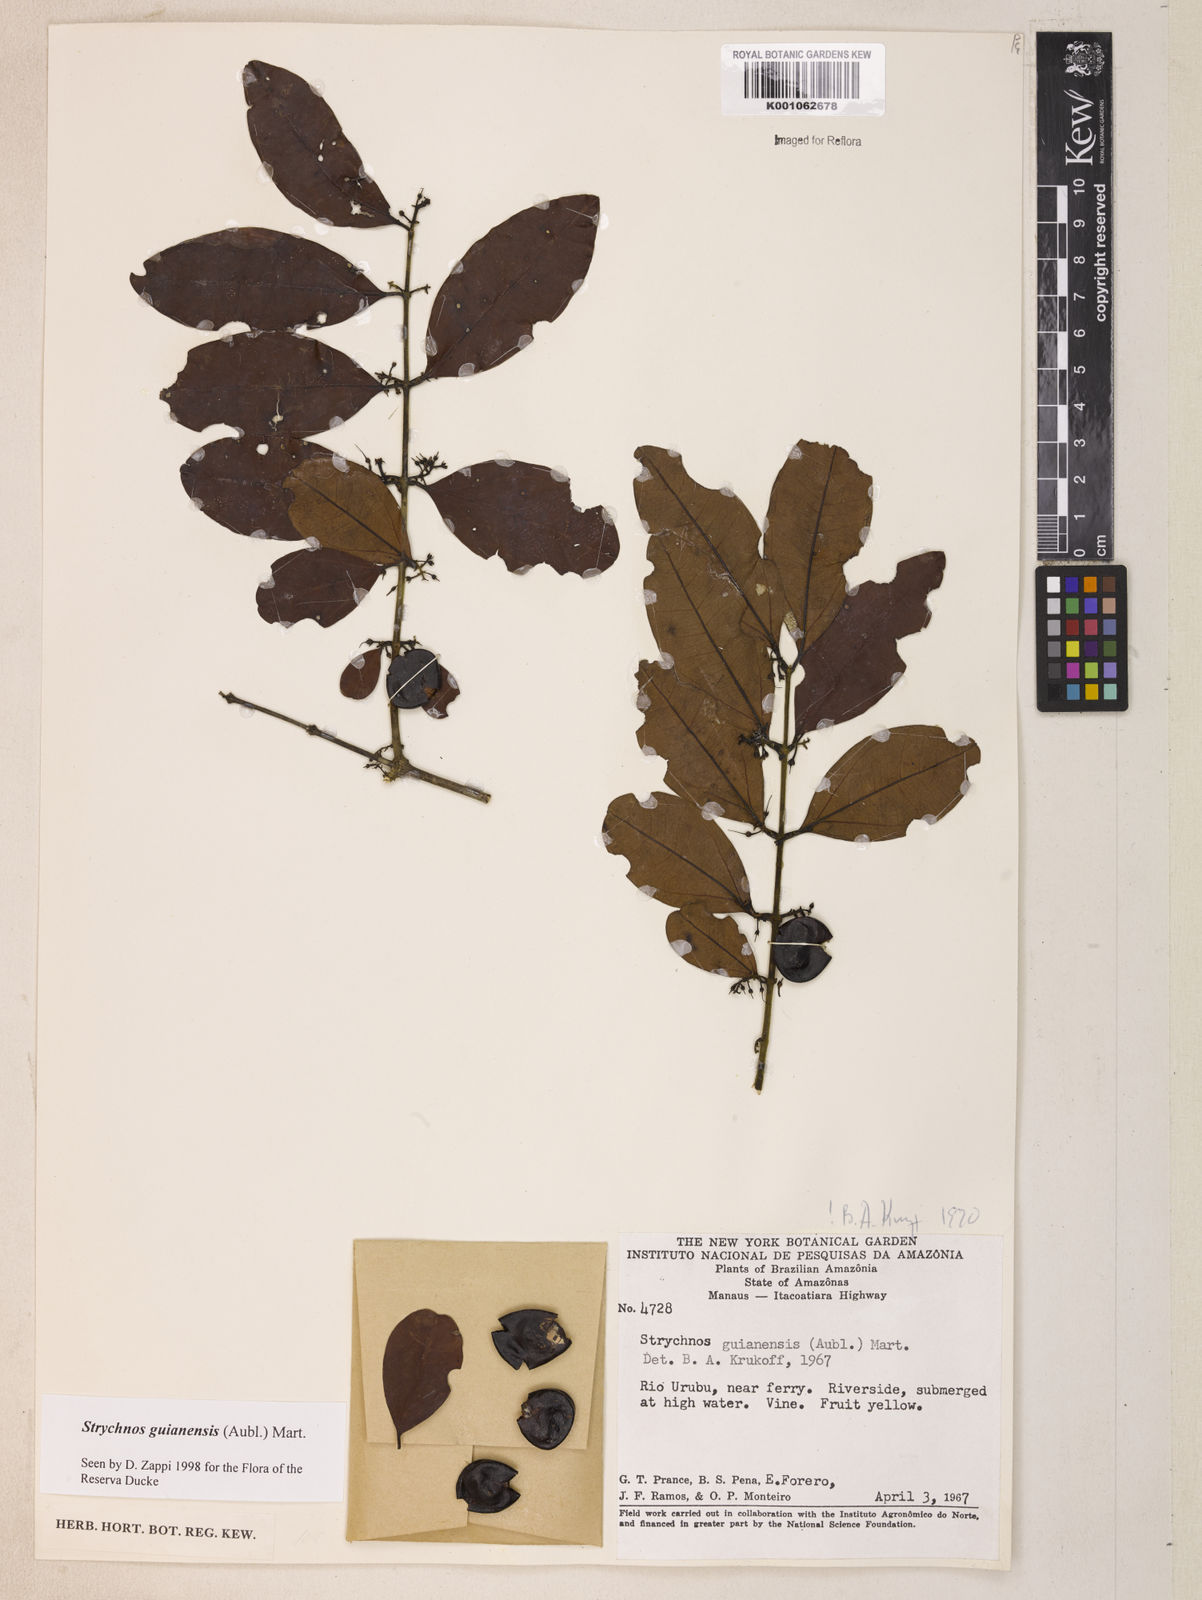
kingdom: Plantae
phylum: Tracheophyta
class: Magnoliopsida
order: Gentianales
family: Loganiaceae
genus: Strychnos
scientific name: Strychnos guianensis
